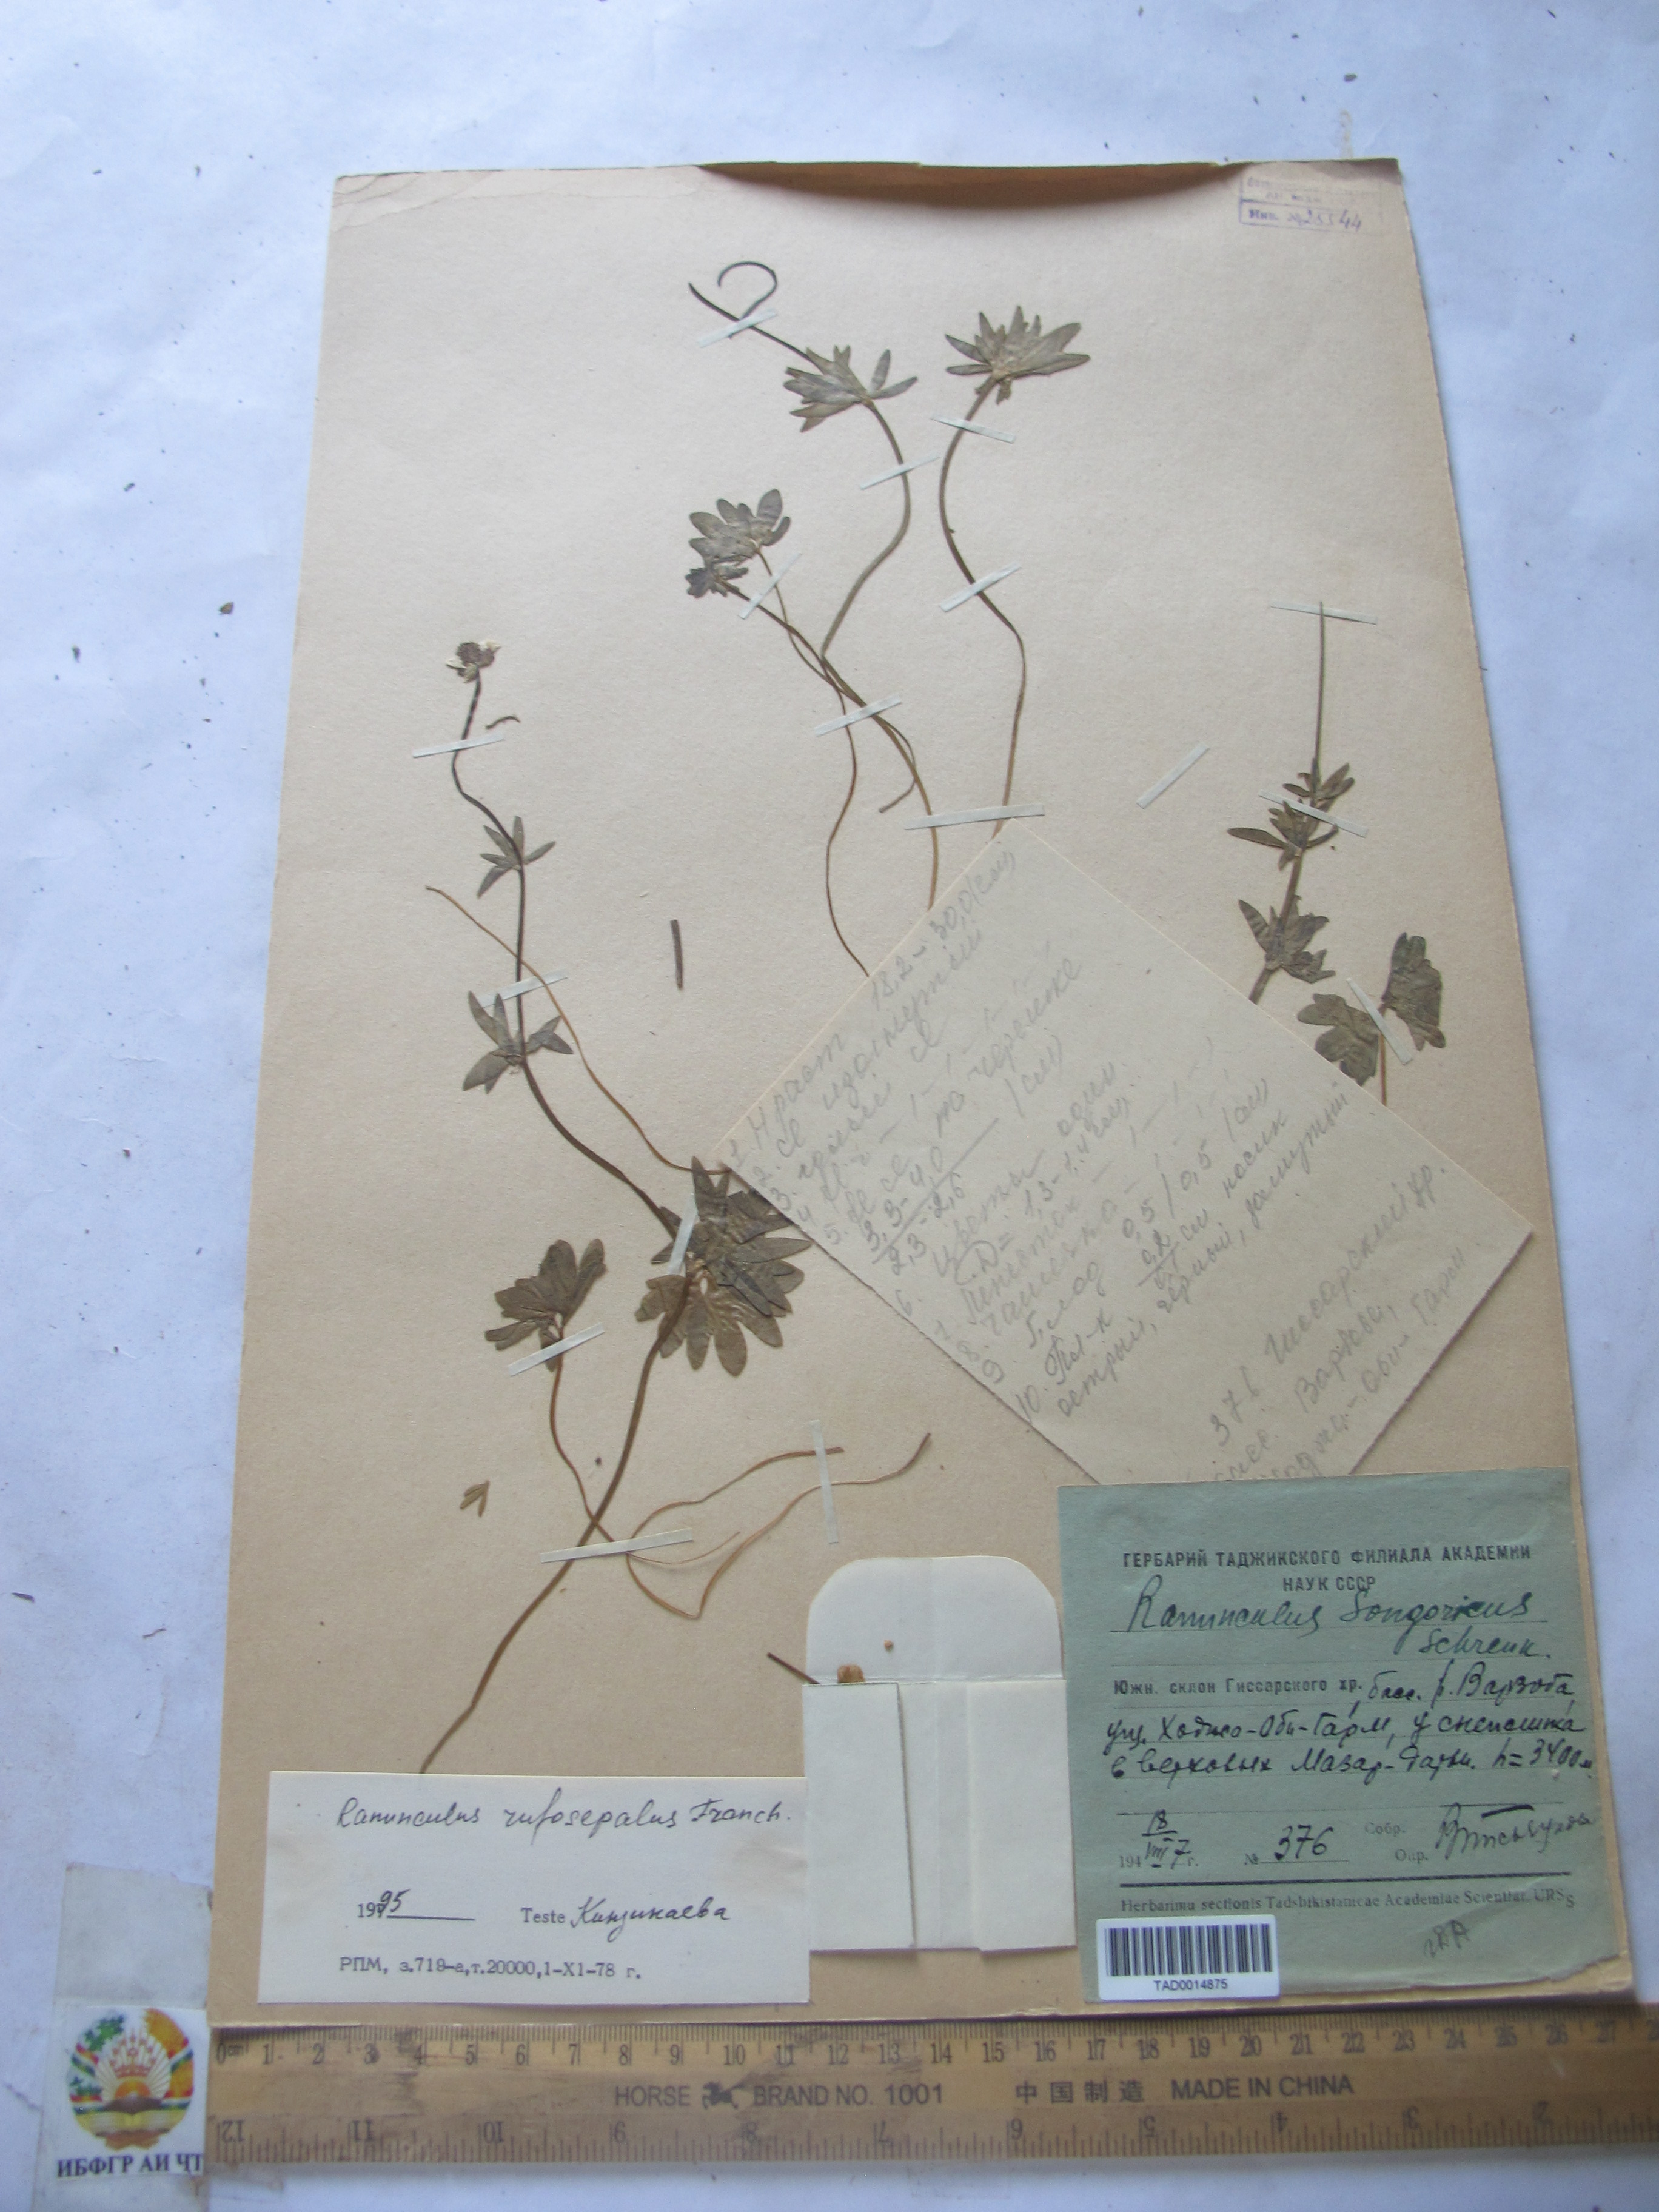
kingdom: Plantae
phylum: Tracheophyta
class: Magnoliopsida
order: Ranunculales
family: Ranunculaceae
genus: Ranunculus
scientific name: Ranunculus rufosepalus
